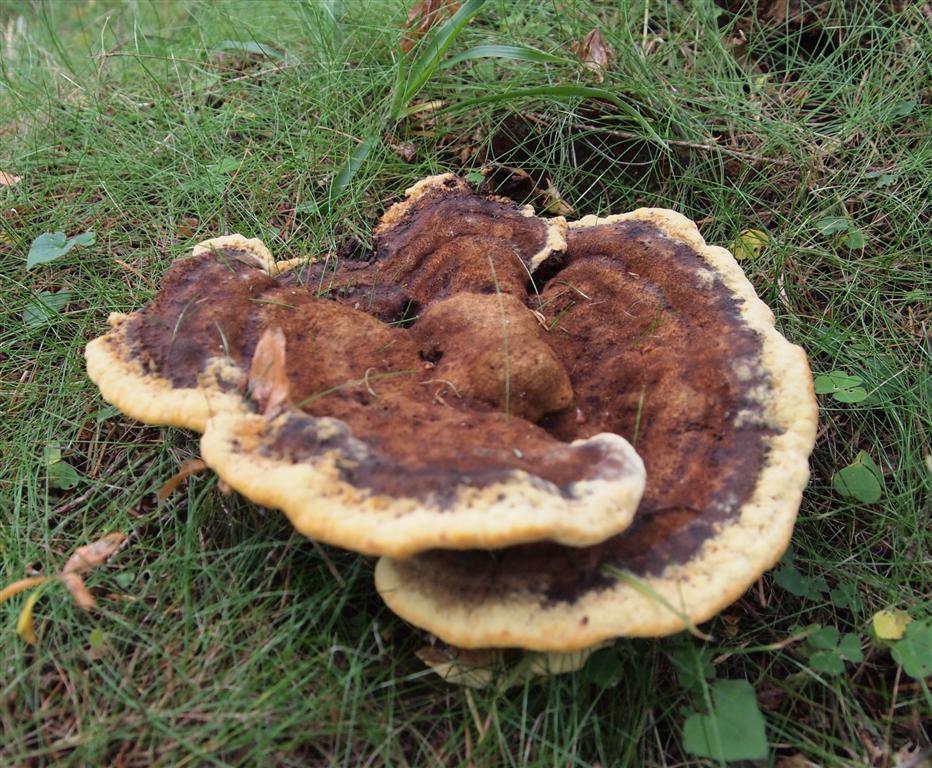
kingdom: Fungi
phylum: Basidiomycota
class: Agaricomycetes
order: Polyporales
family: Laetiporaceae
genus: Phaeolus
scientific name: Phaeolus schweinitzii
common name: brunporesvamp
